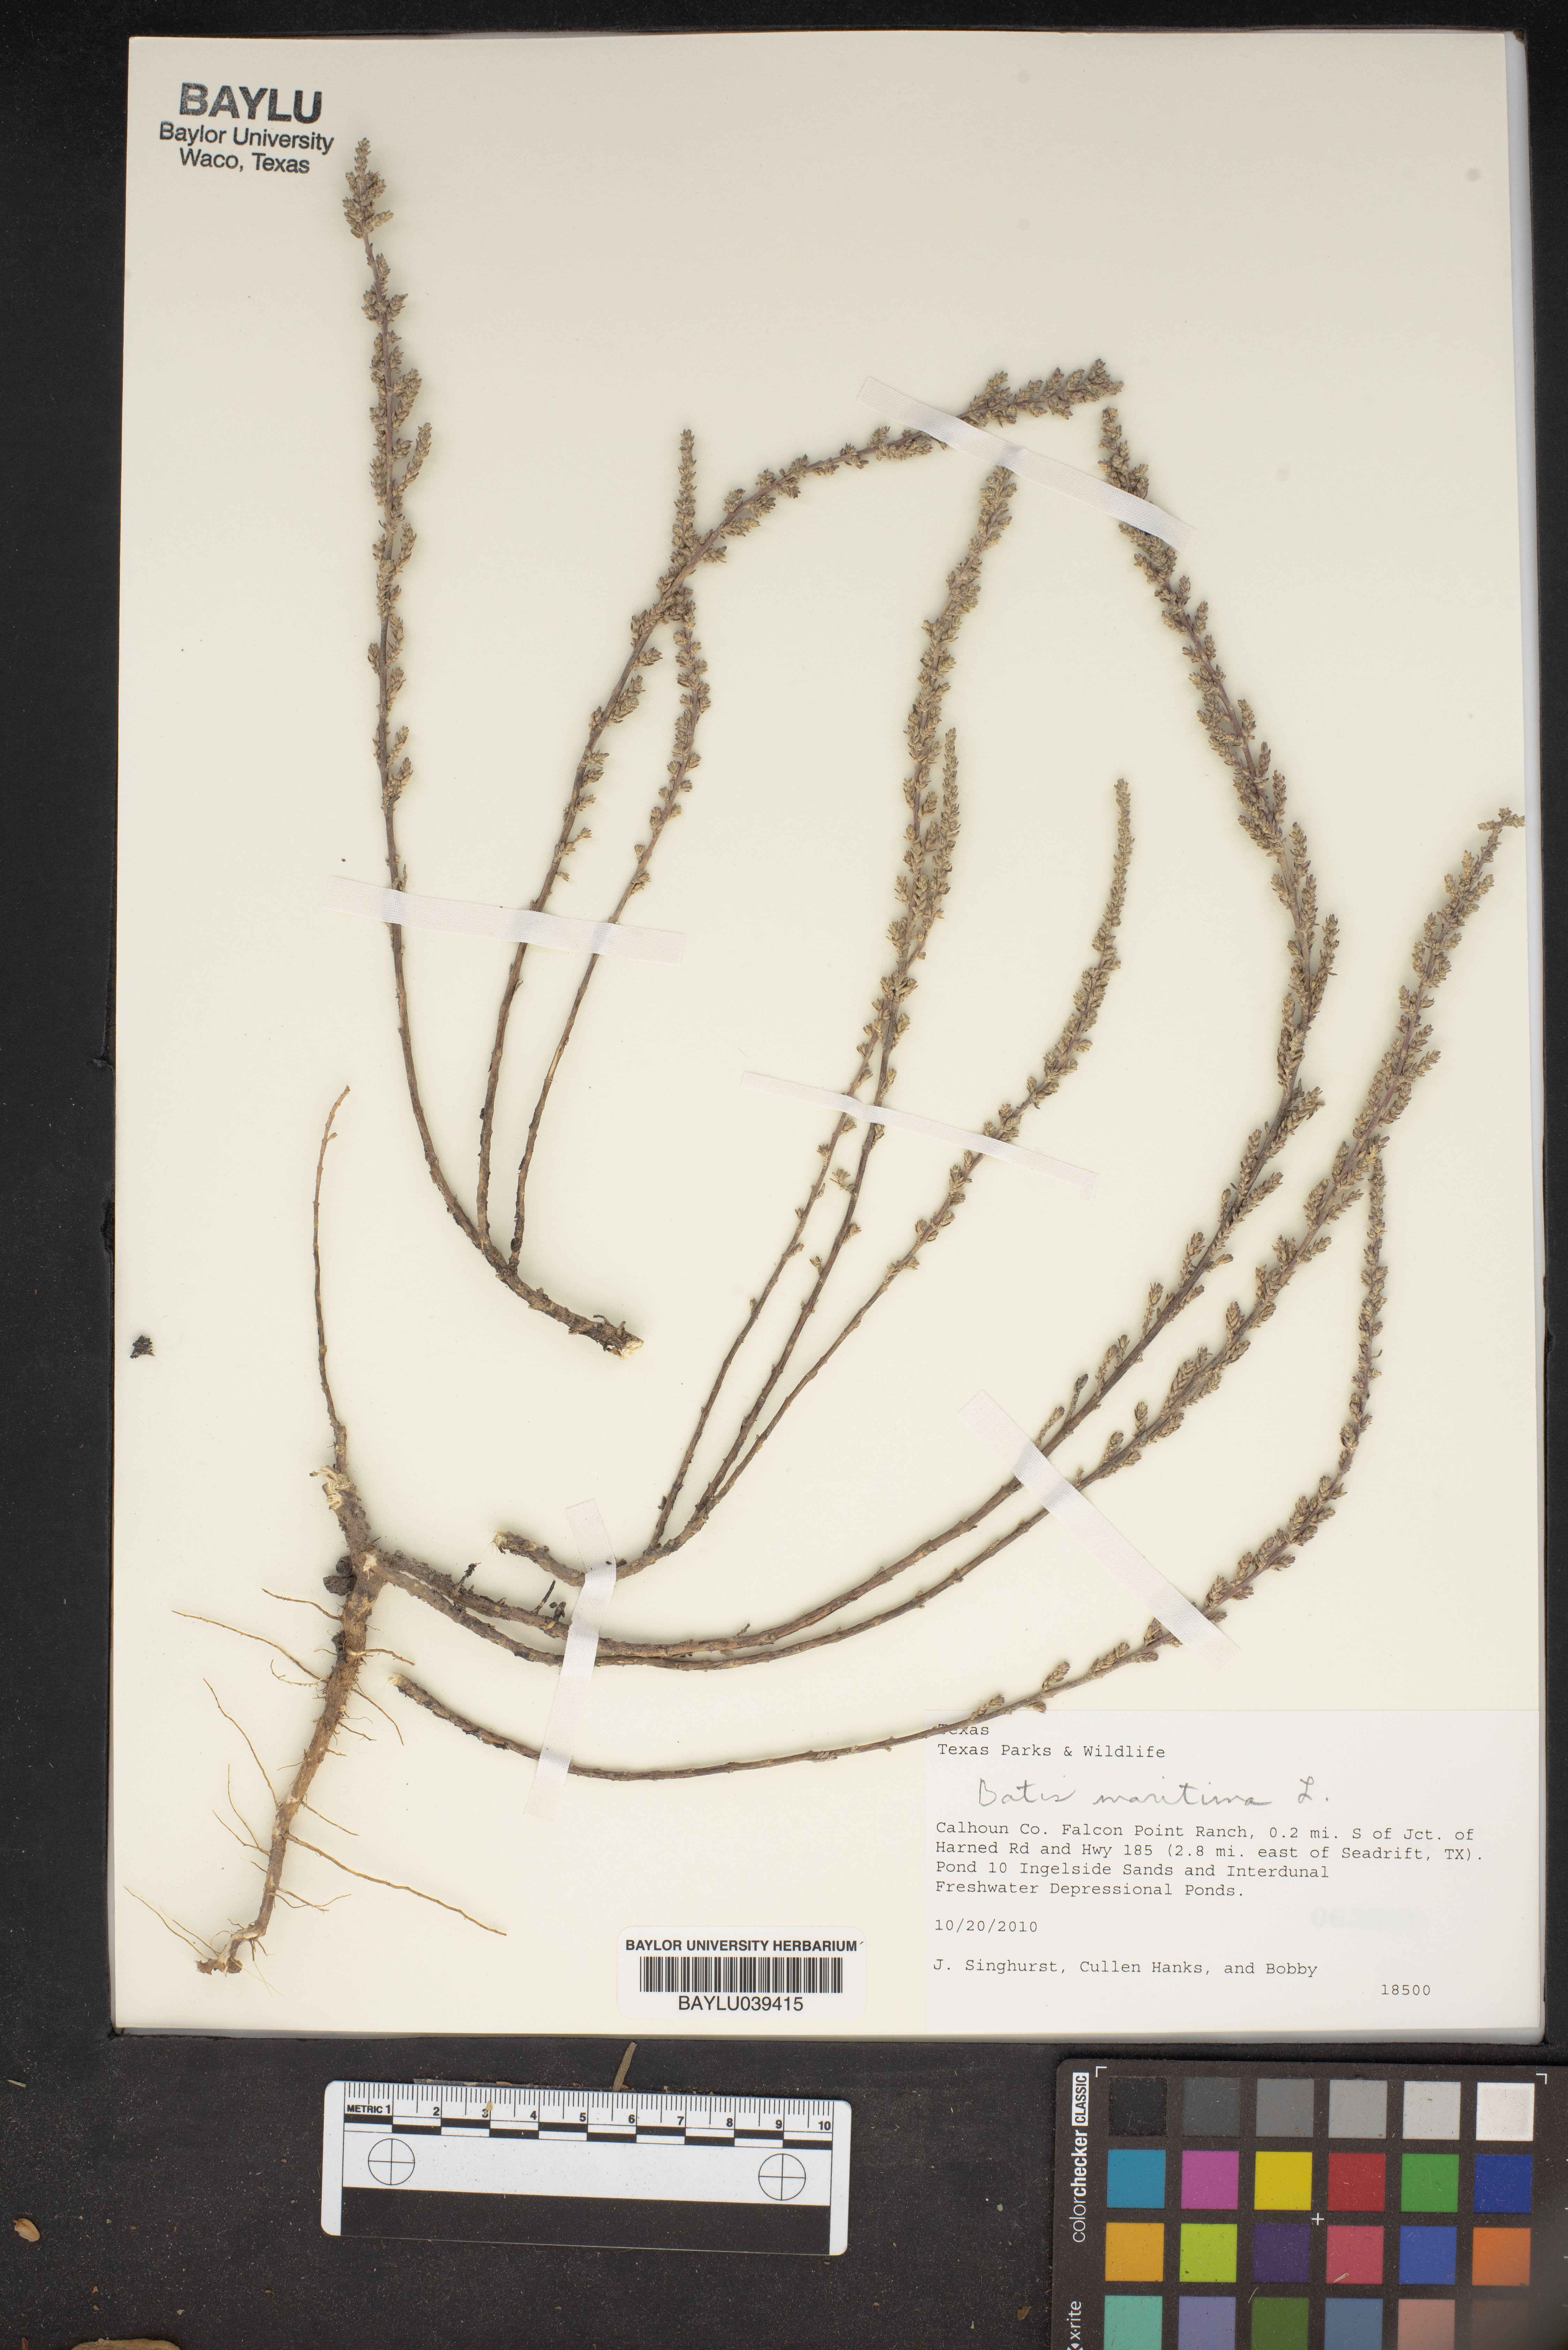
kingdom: Plantae
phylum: Tracheophyta
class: Magnoliopsida
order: Brassicales
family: Bataceae
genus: Batis
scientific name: Batis maritima
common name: Turtleweed
